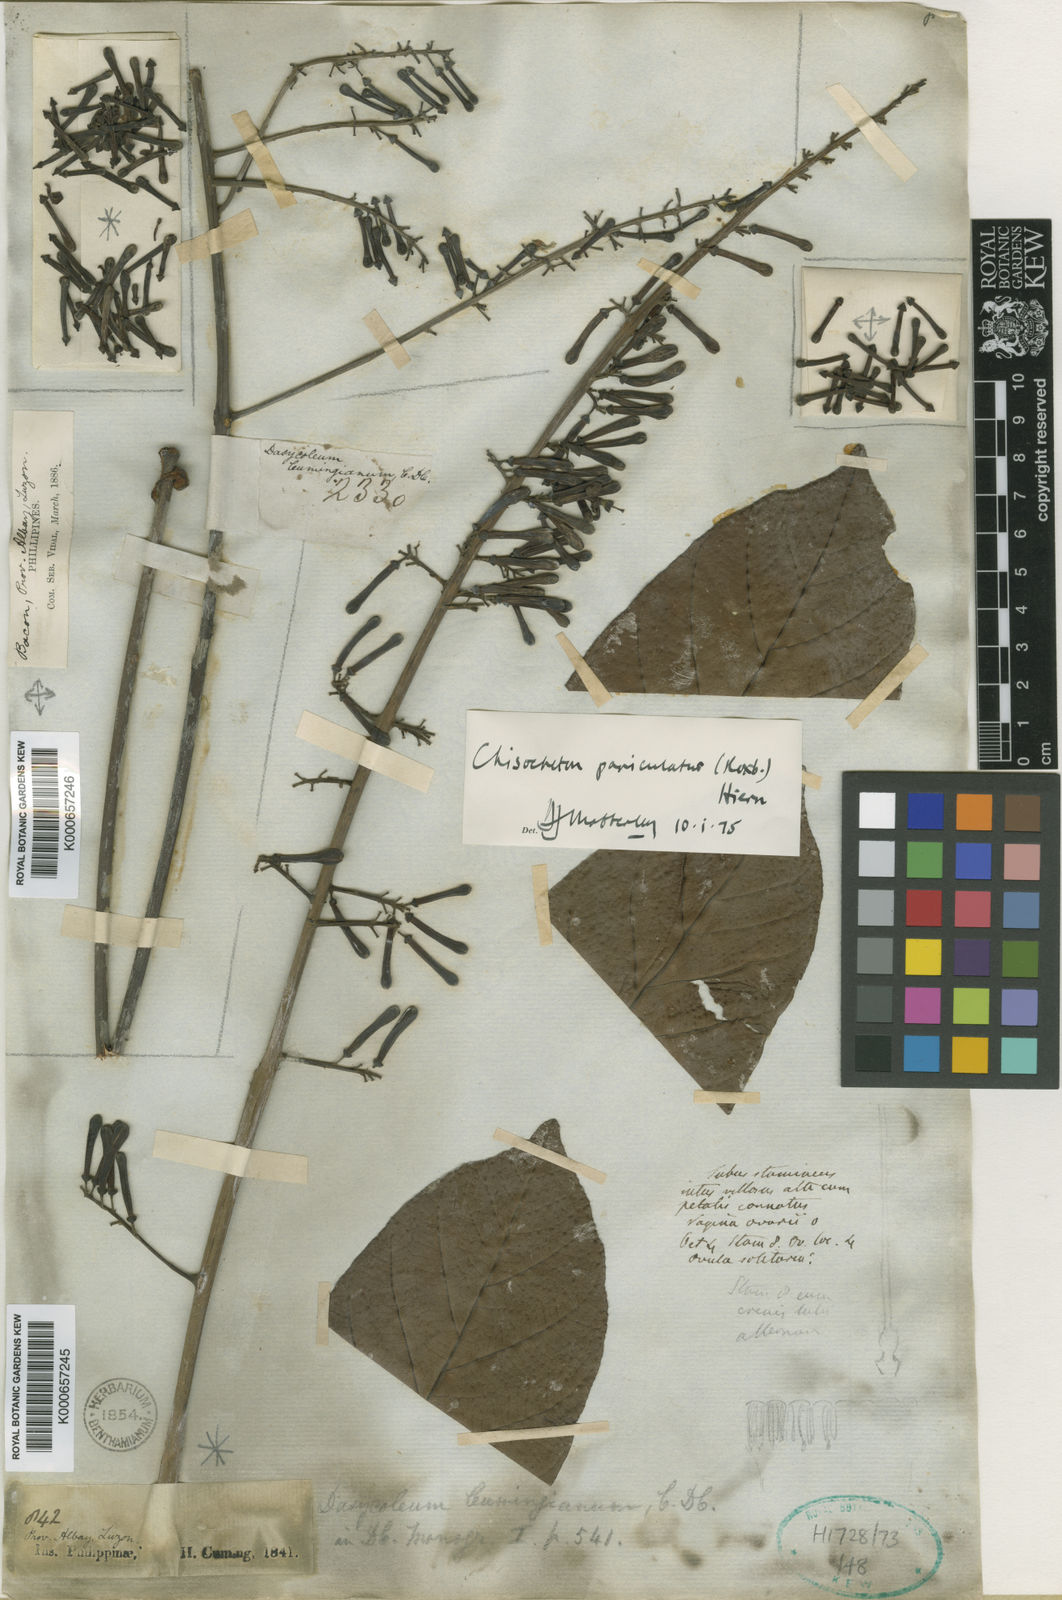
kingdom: Plantae
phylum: Tracheophyta
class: Magnoliopsida
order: Sapindales
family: Meliaceae
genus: Chisocheton
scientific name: Chisocheton cumingianus
